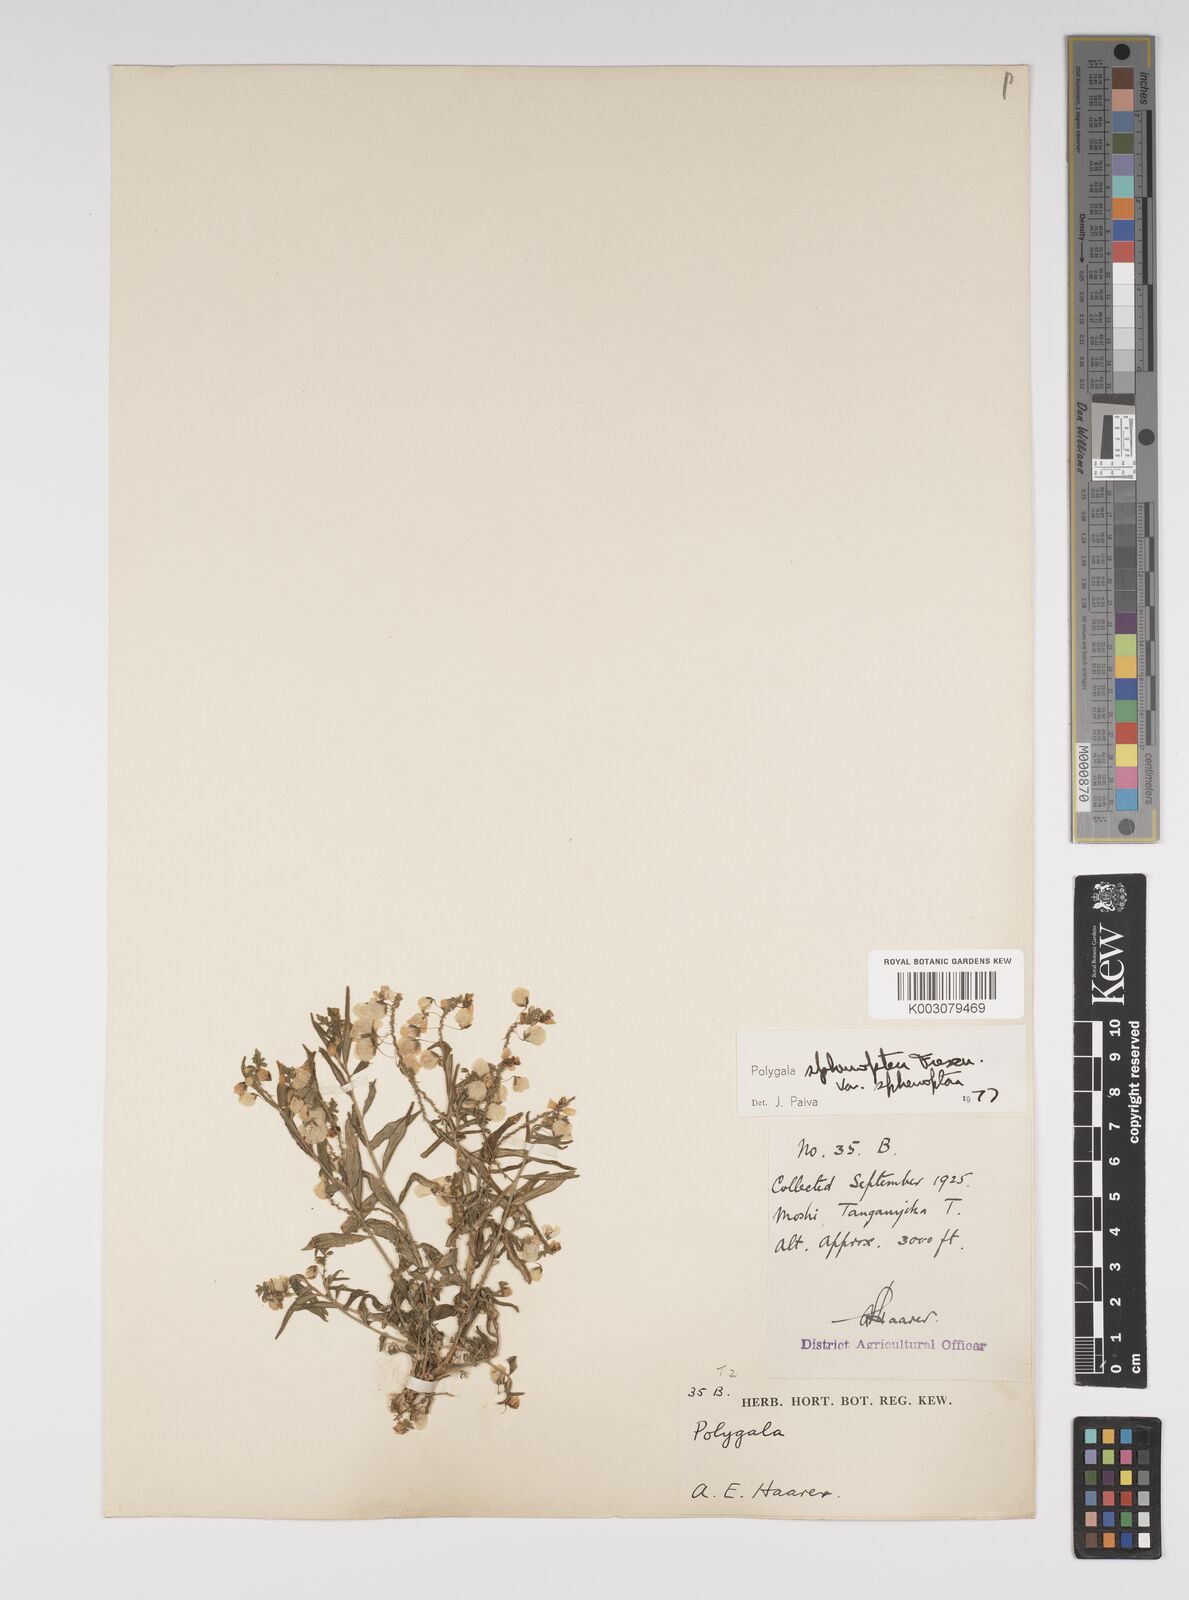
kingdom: Plantae
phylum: Tracheophyta
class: Magnoliopsida
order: Fabales
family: Polygalaceae
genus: Polygala
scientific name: Polygala sphenoptera
